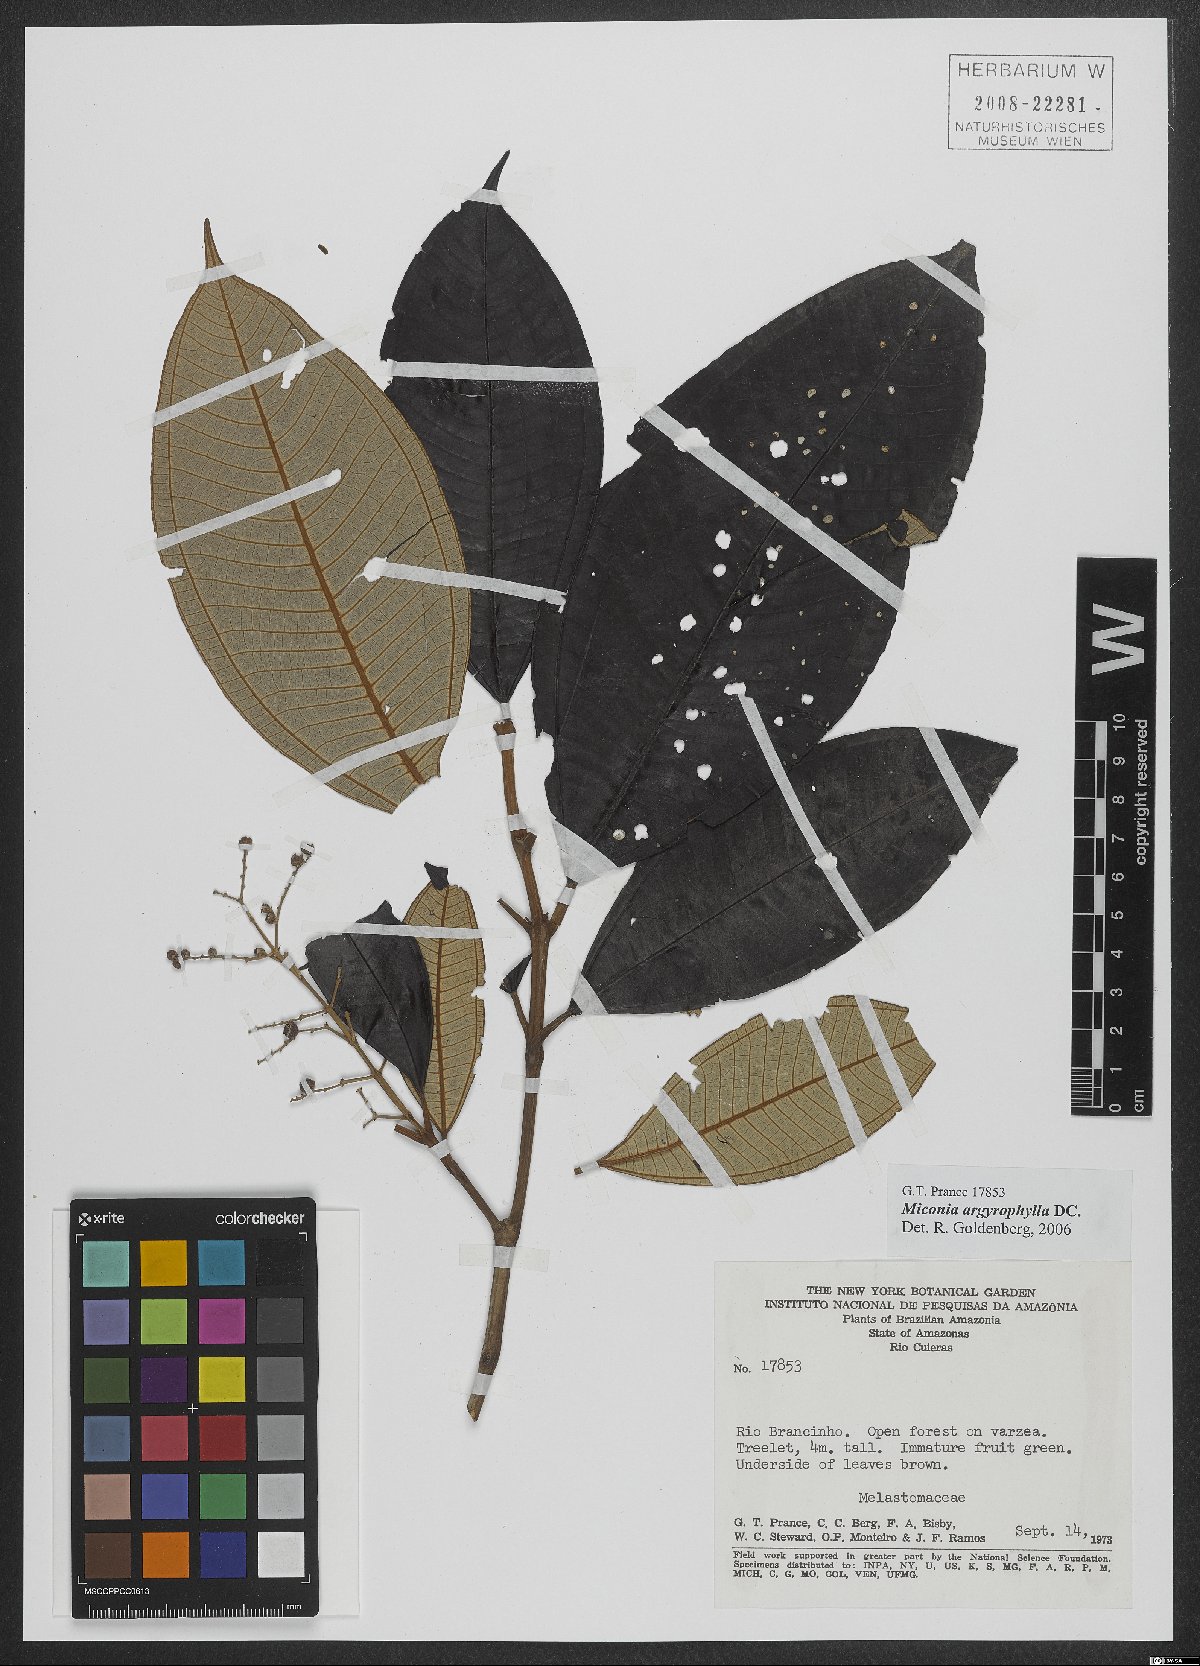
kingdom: Plantae
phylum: Tracheophyta
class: Magnoliopsida
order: Myrtales
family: Melastomataceae
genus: Miconia
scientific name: Miconia argyrophylla
